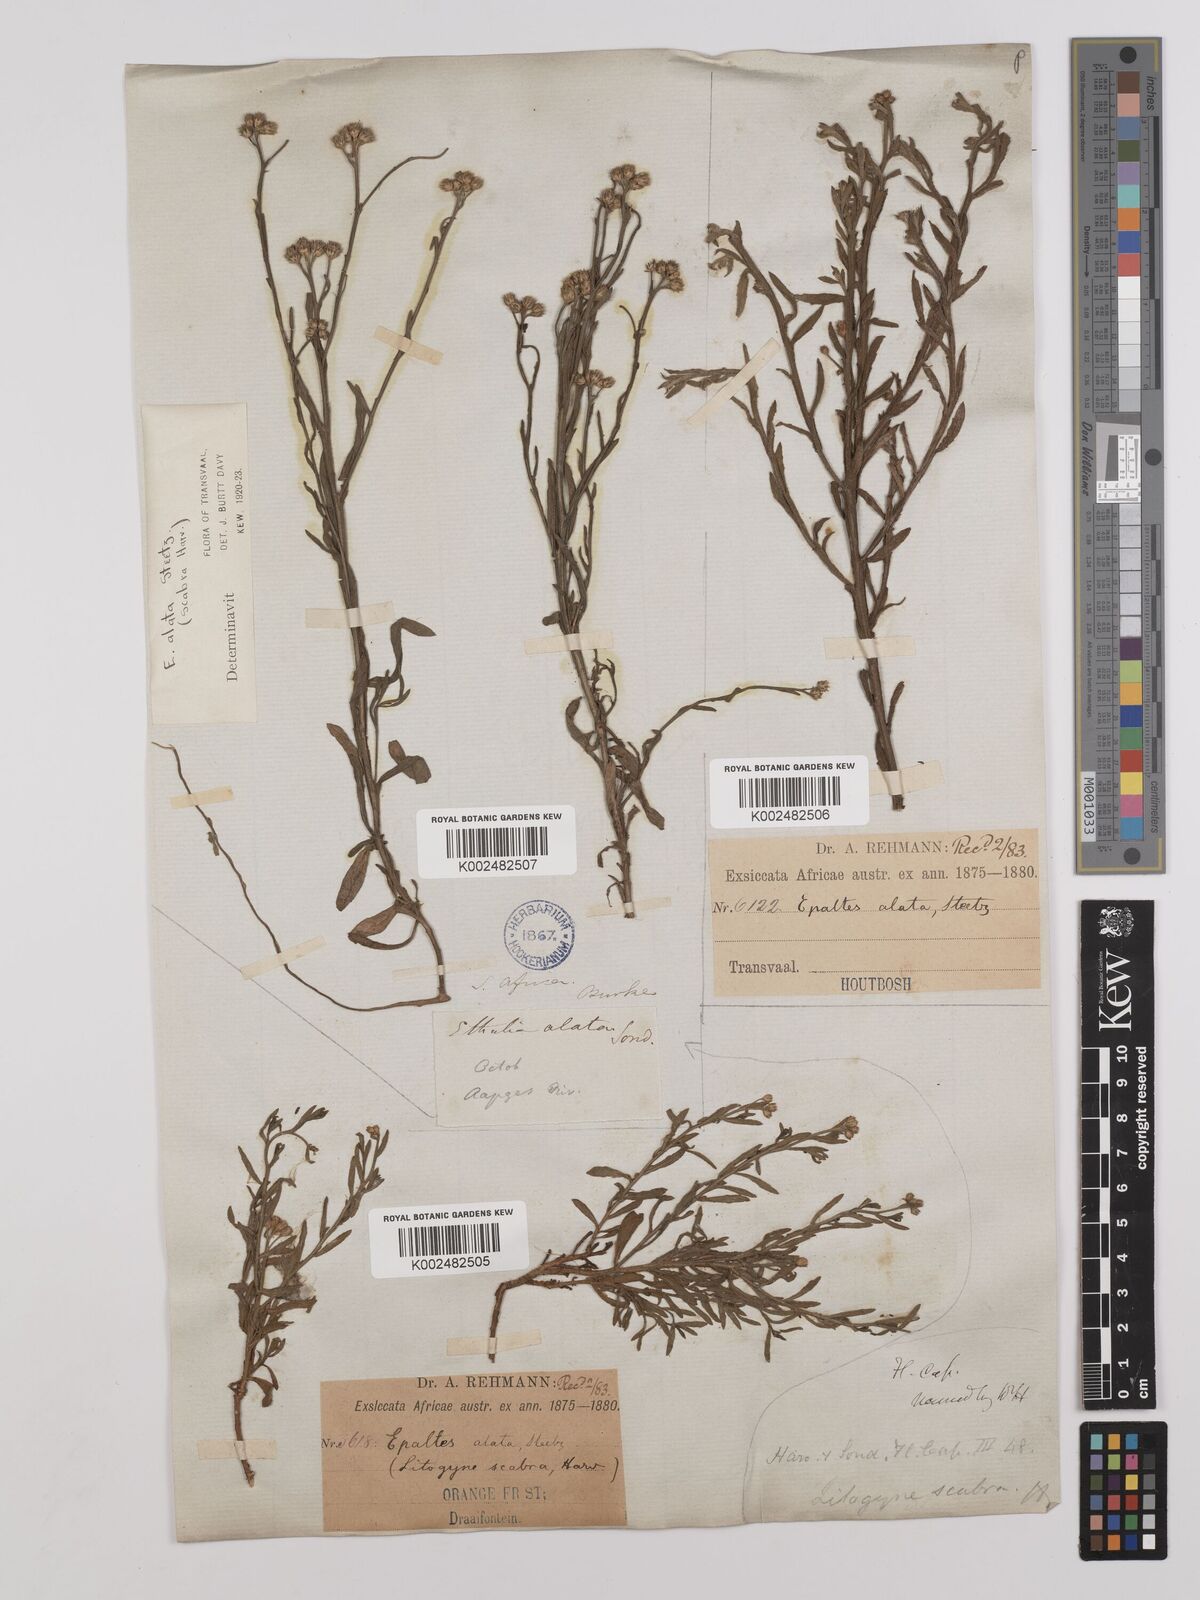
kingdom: Plantae
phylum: Tracheophyta
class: Magnoliopsida
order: Asterales
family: Asteraceae
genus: Litogyne
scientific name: Litogyne gariepina
